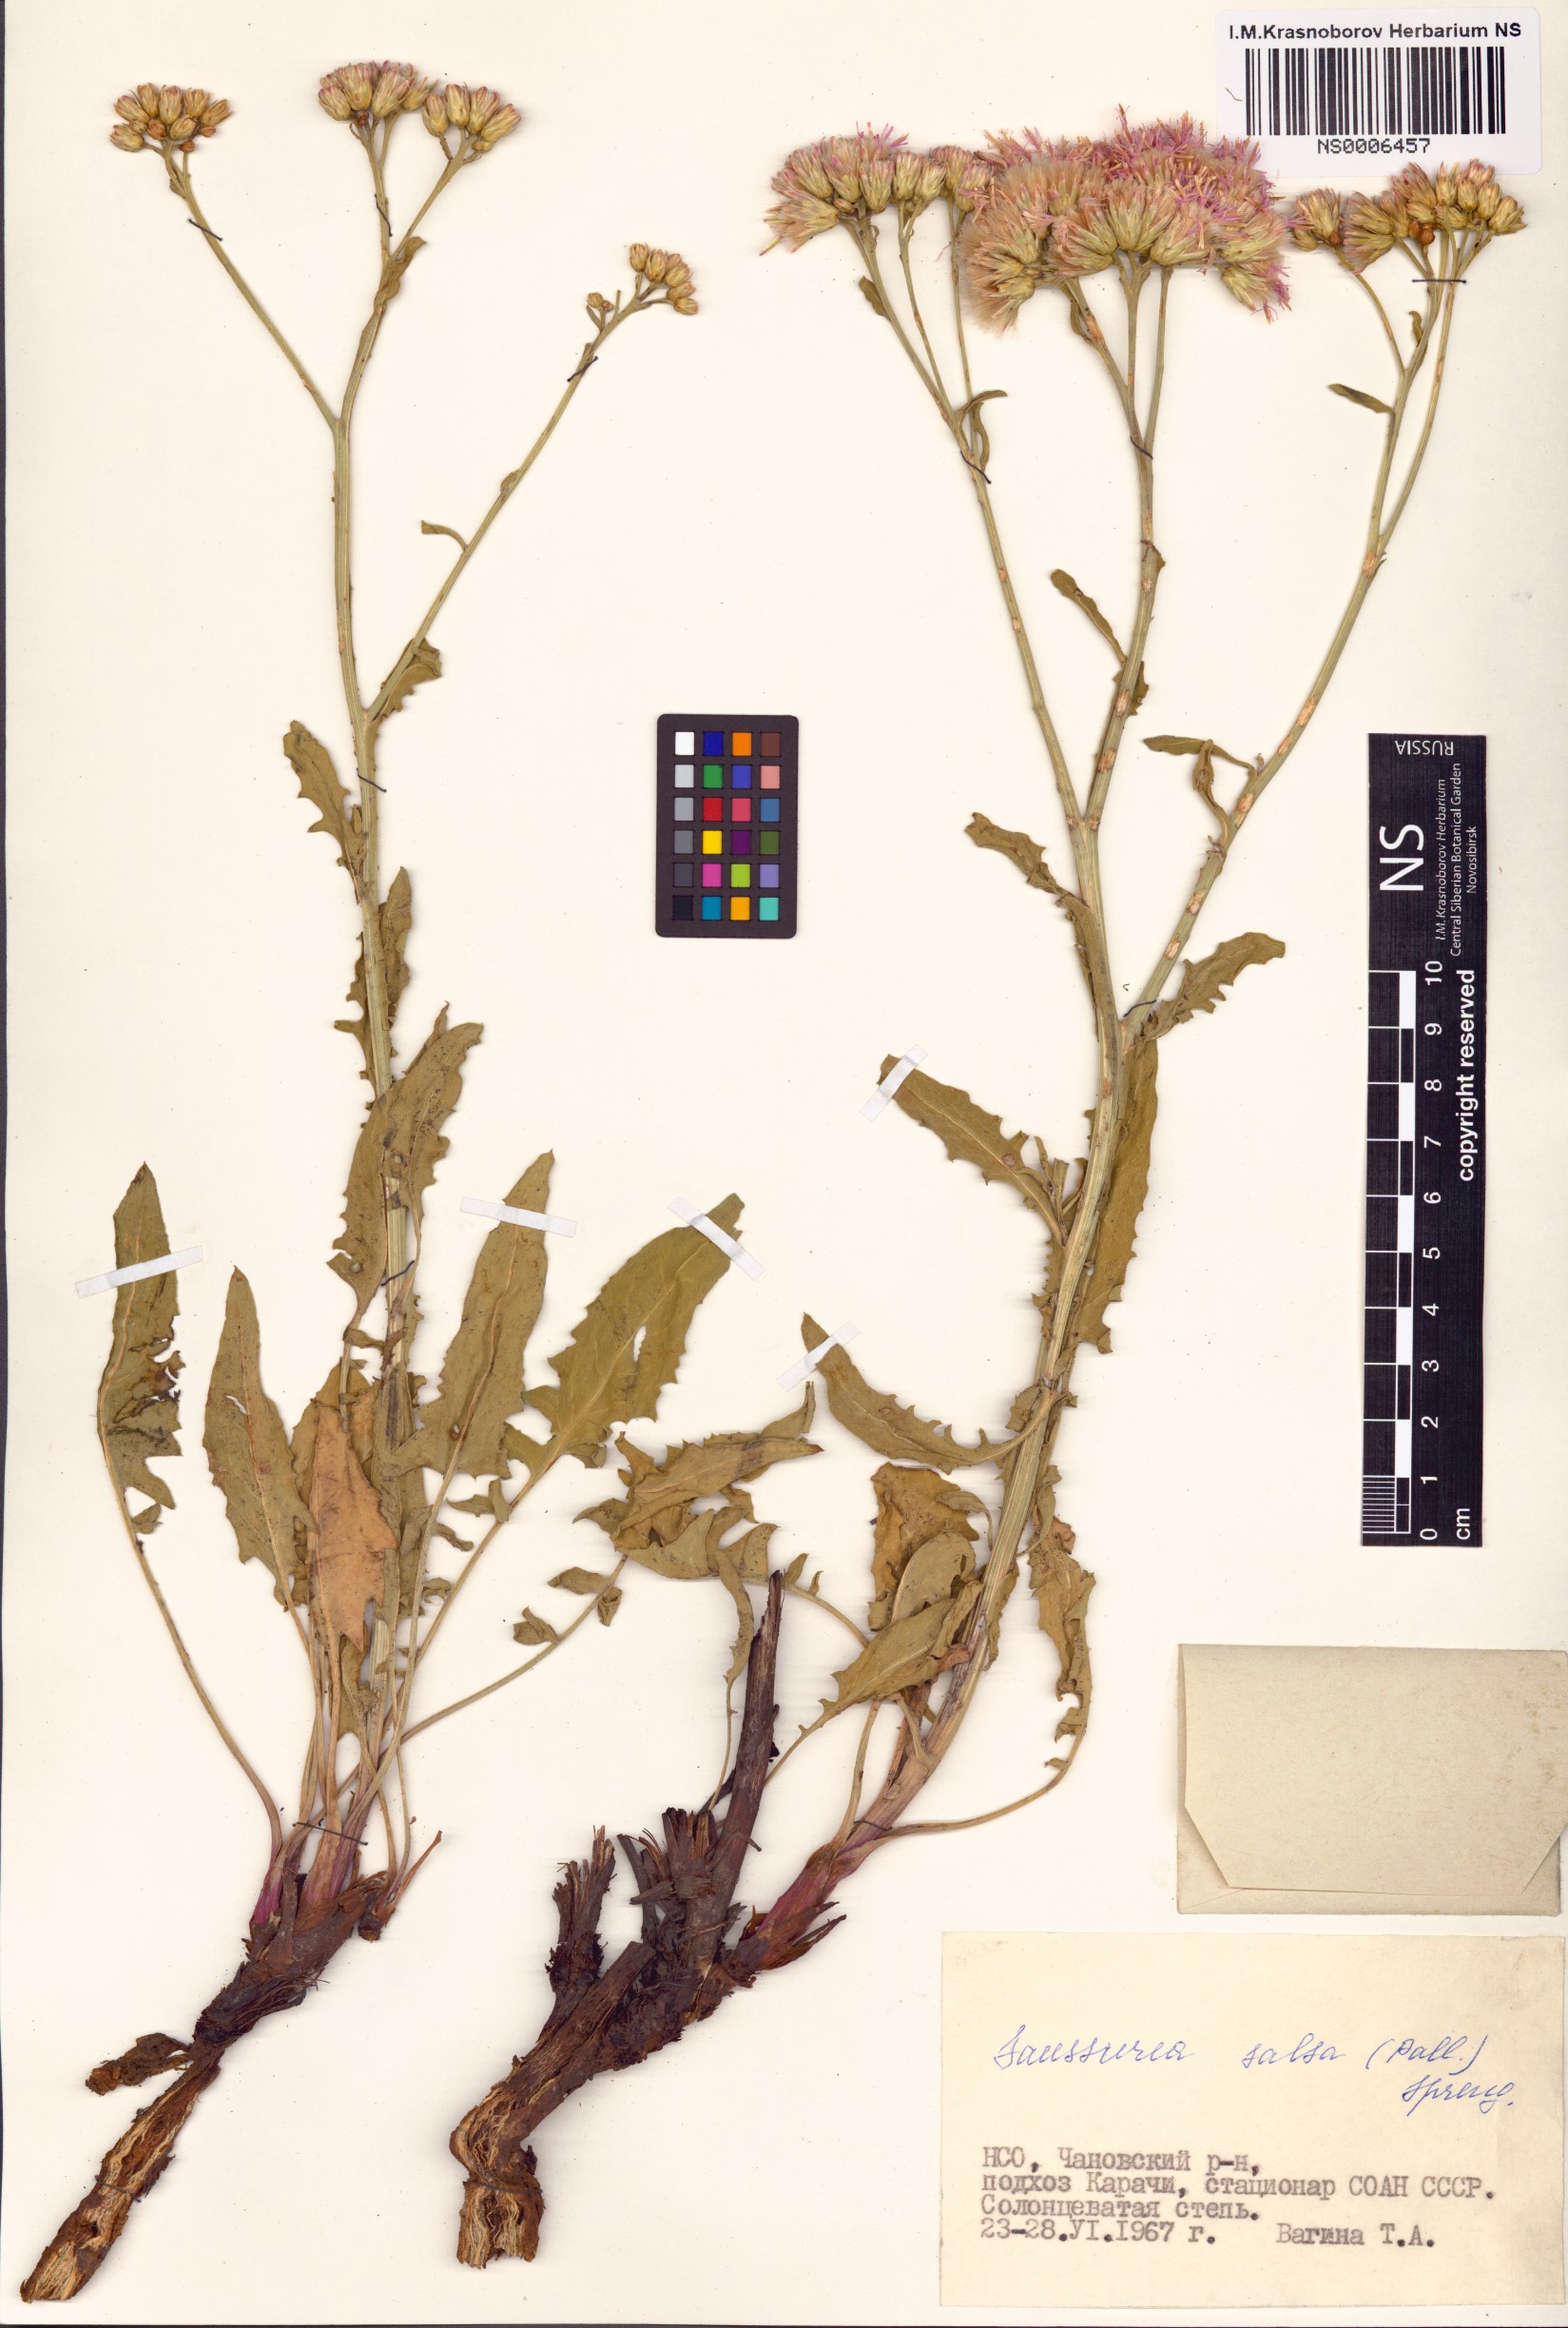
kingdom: Plantae
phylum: Tracheophyta
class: Magnoliopsida
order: Asterales
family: Asteraceae
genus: Saussurea
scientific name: Saussurea salsa
